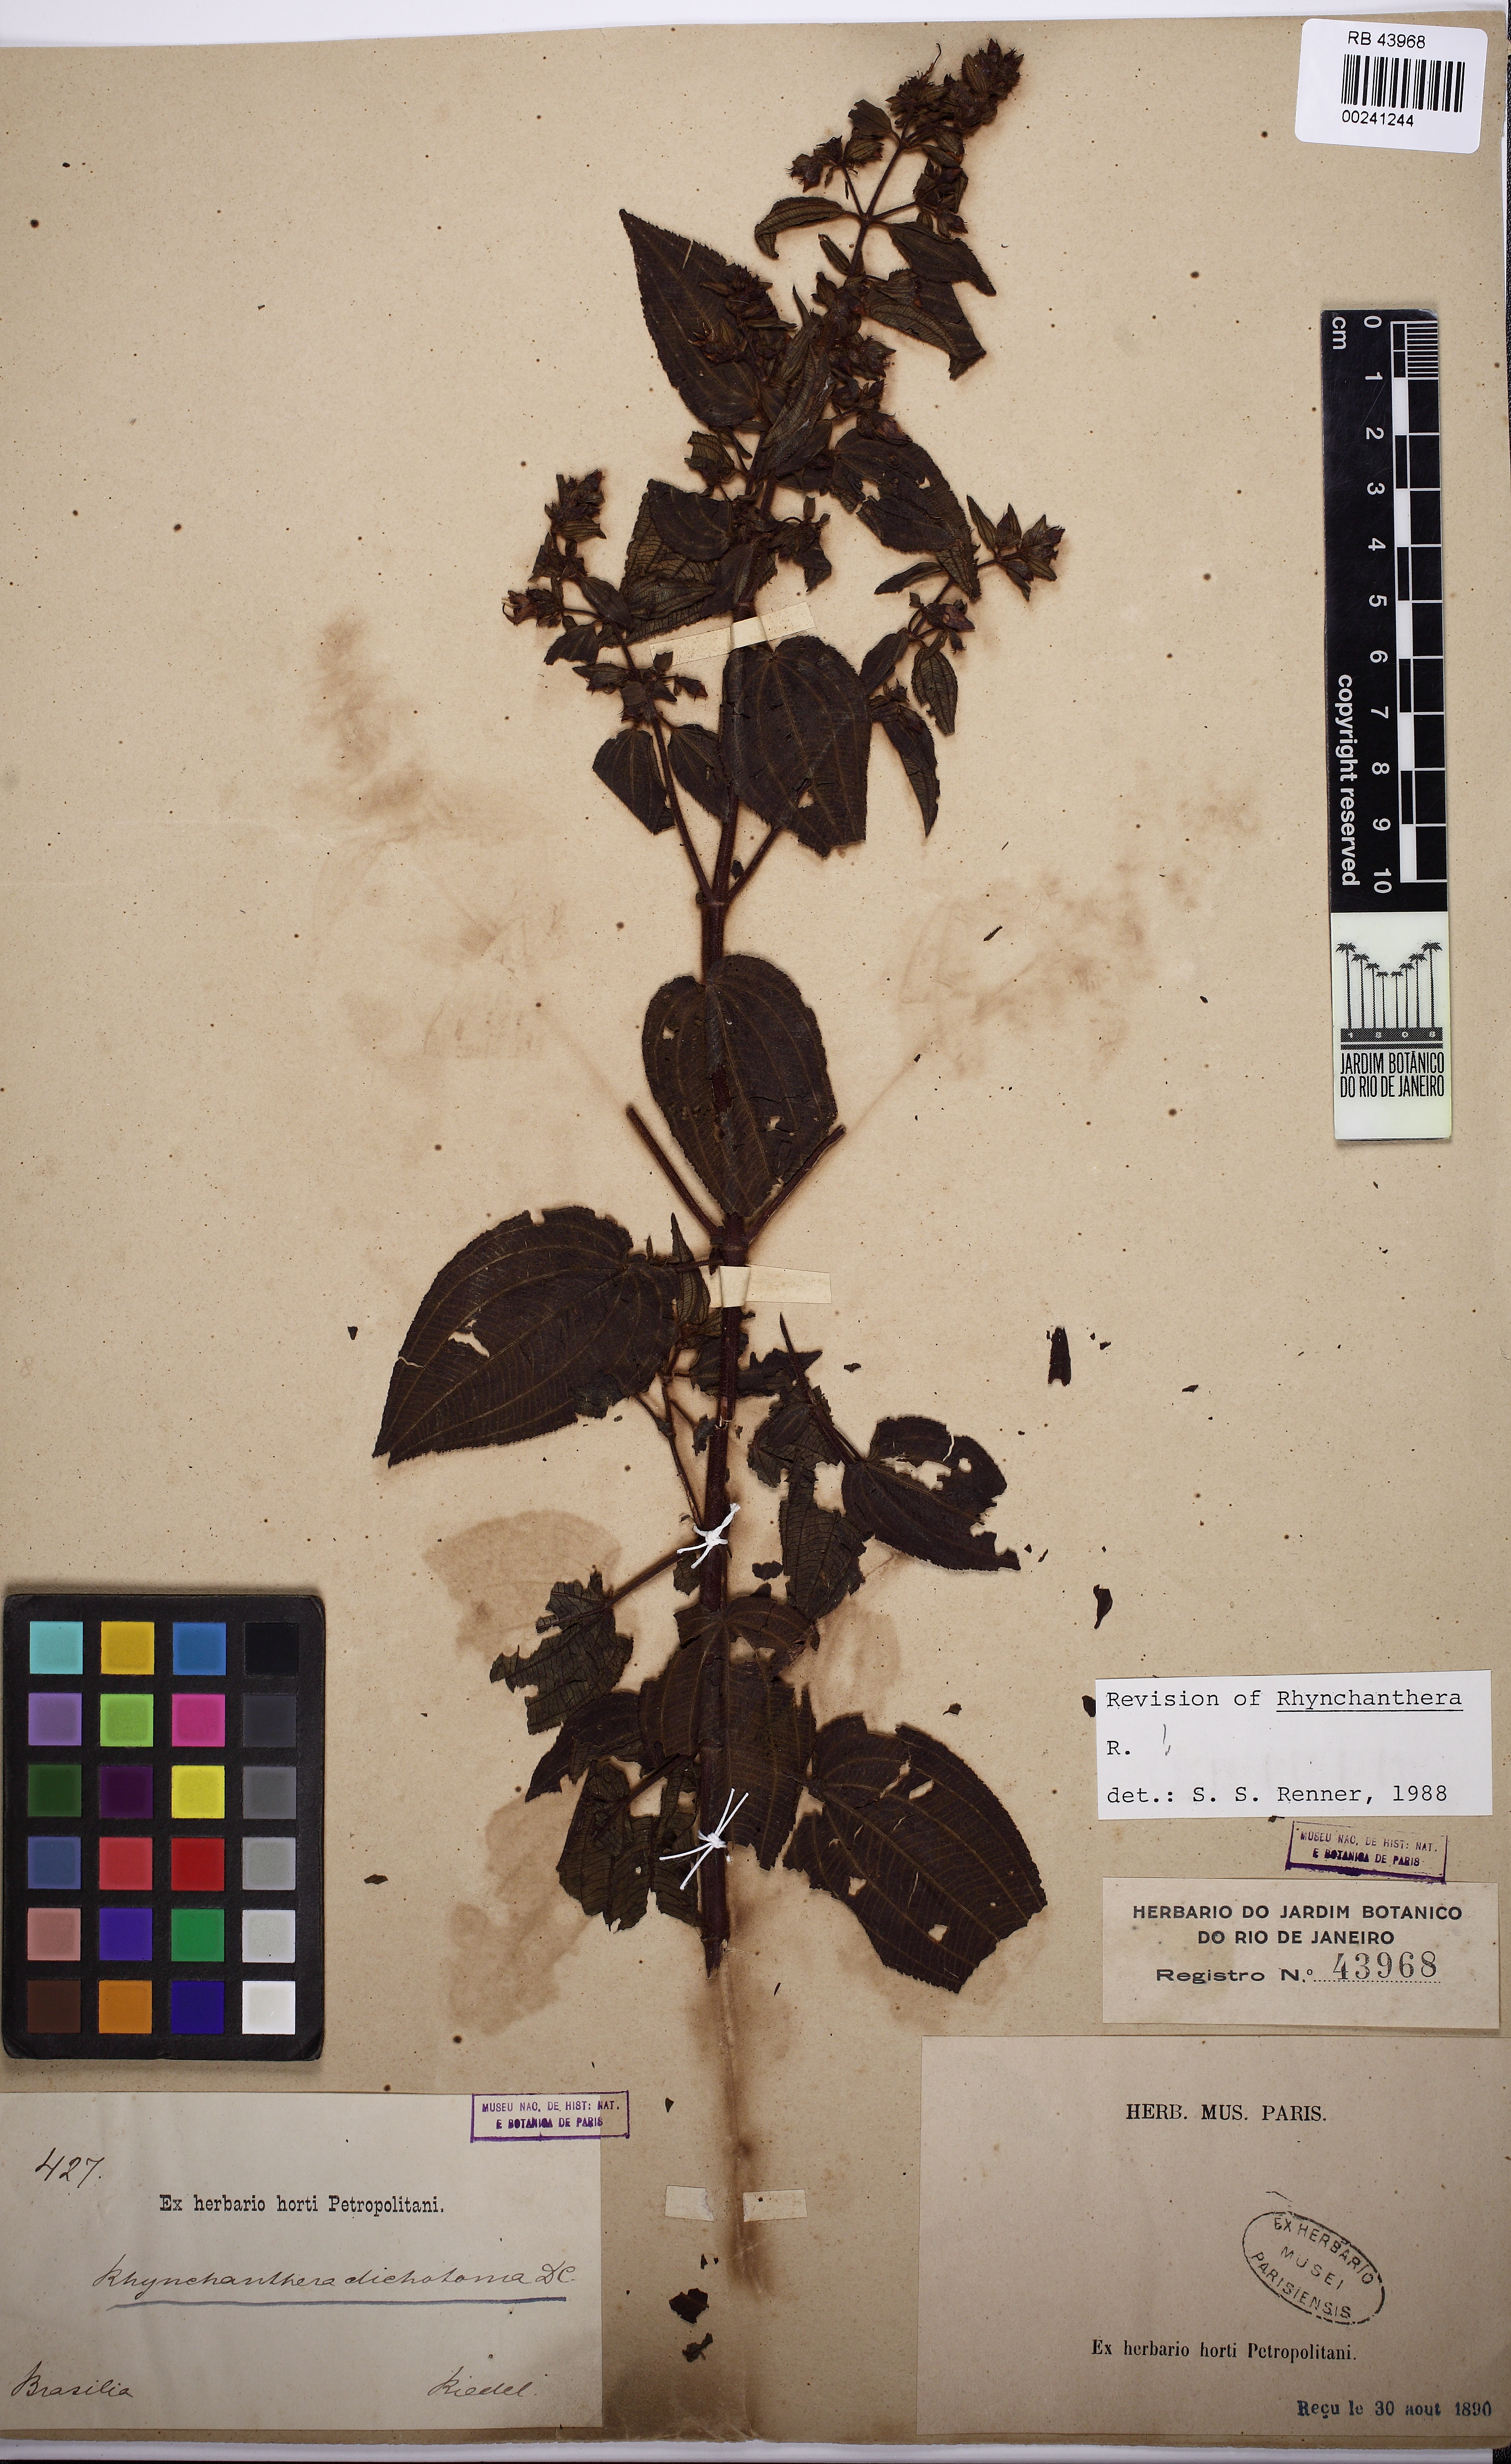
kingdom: Plantae
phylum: Tracheophyta
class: Magnoliopsida
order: Myrtales
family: Melastomataceae
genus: Rhynchanthera
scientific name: Rhynchanthera dichotoma
